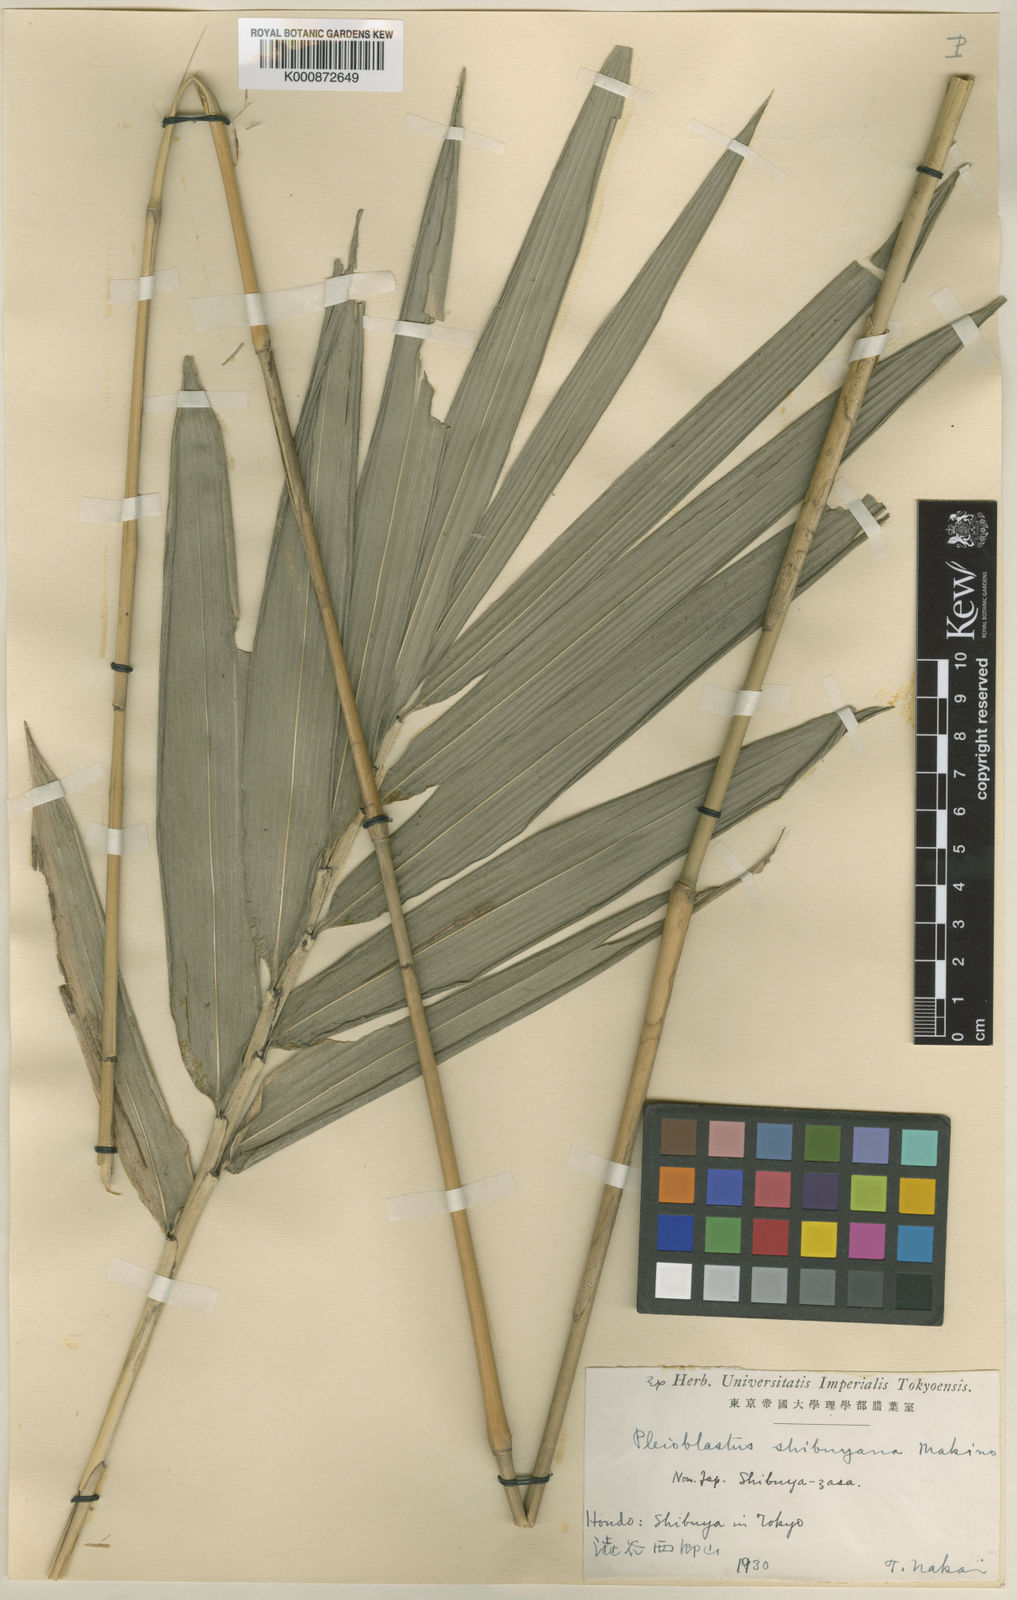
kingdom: Plantae
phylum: Tracheophyta
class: Liliopsida
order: Poales
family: Poaceae
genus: Arundinaria
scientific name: Arundinaria
